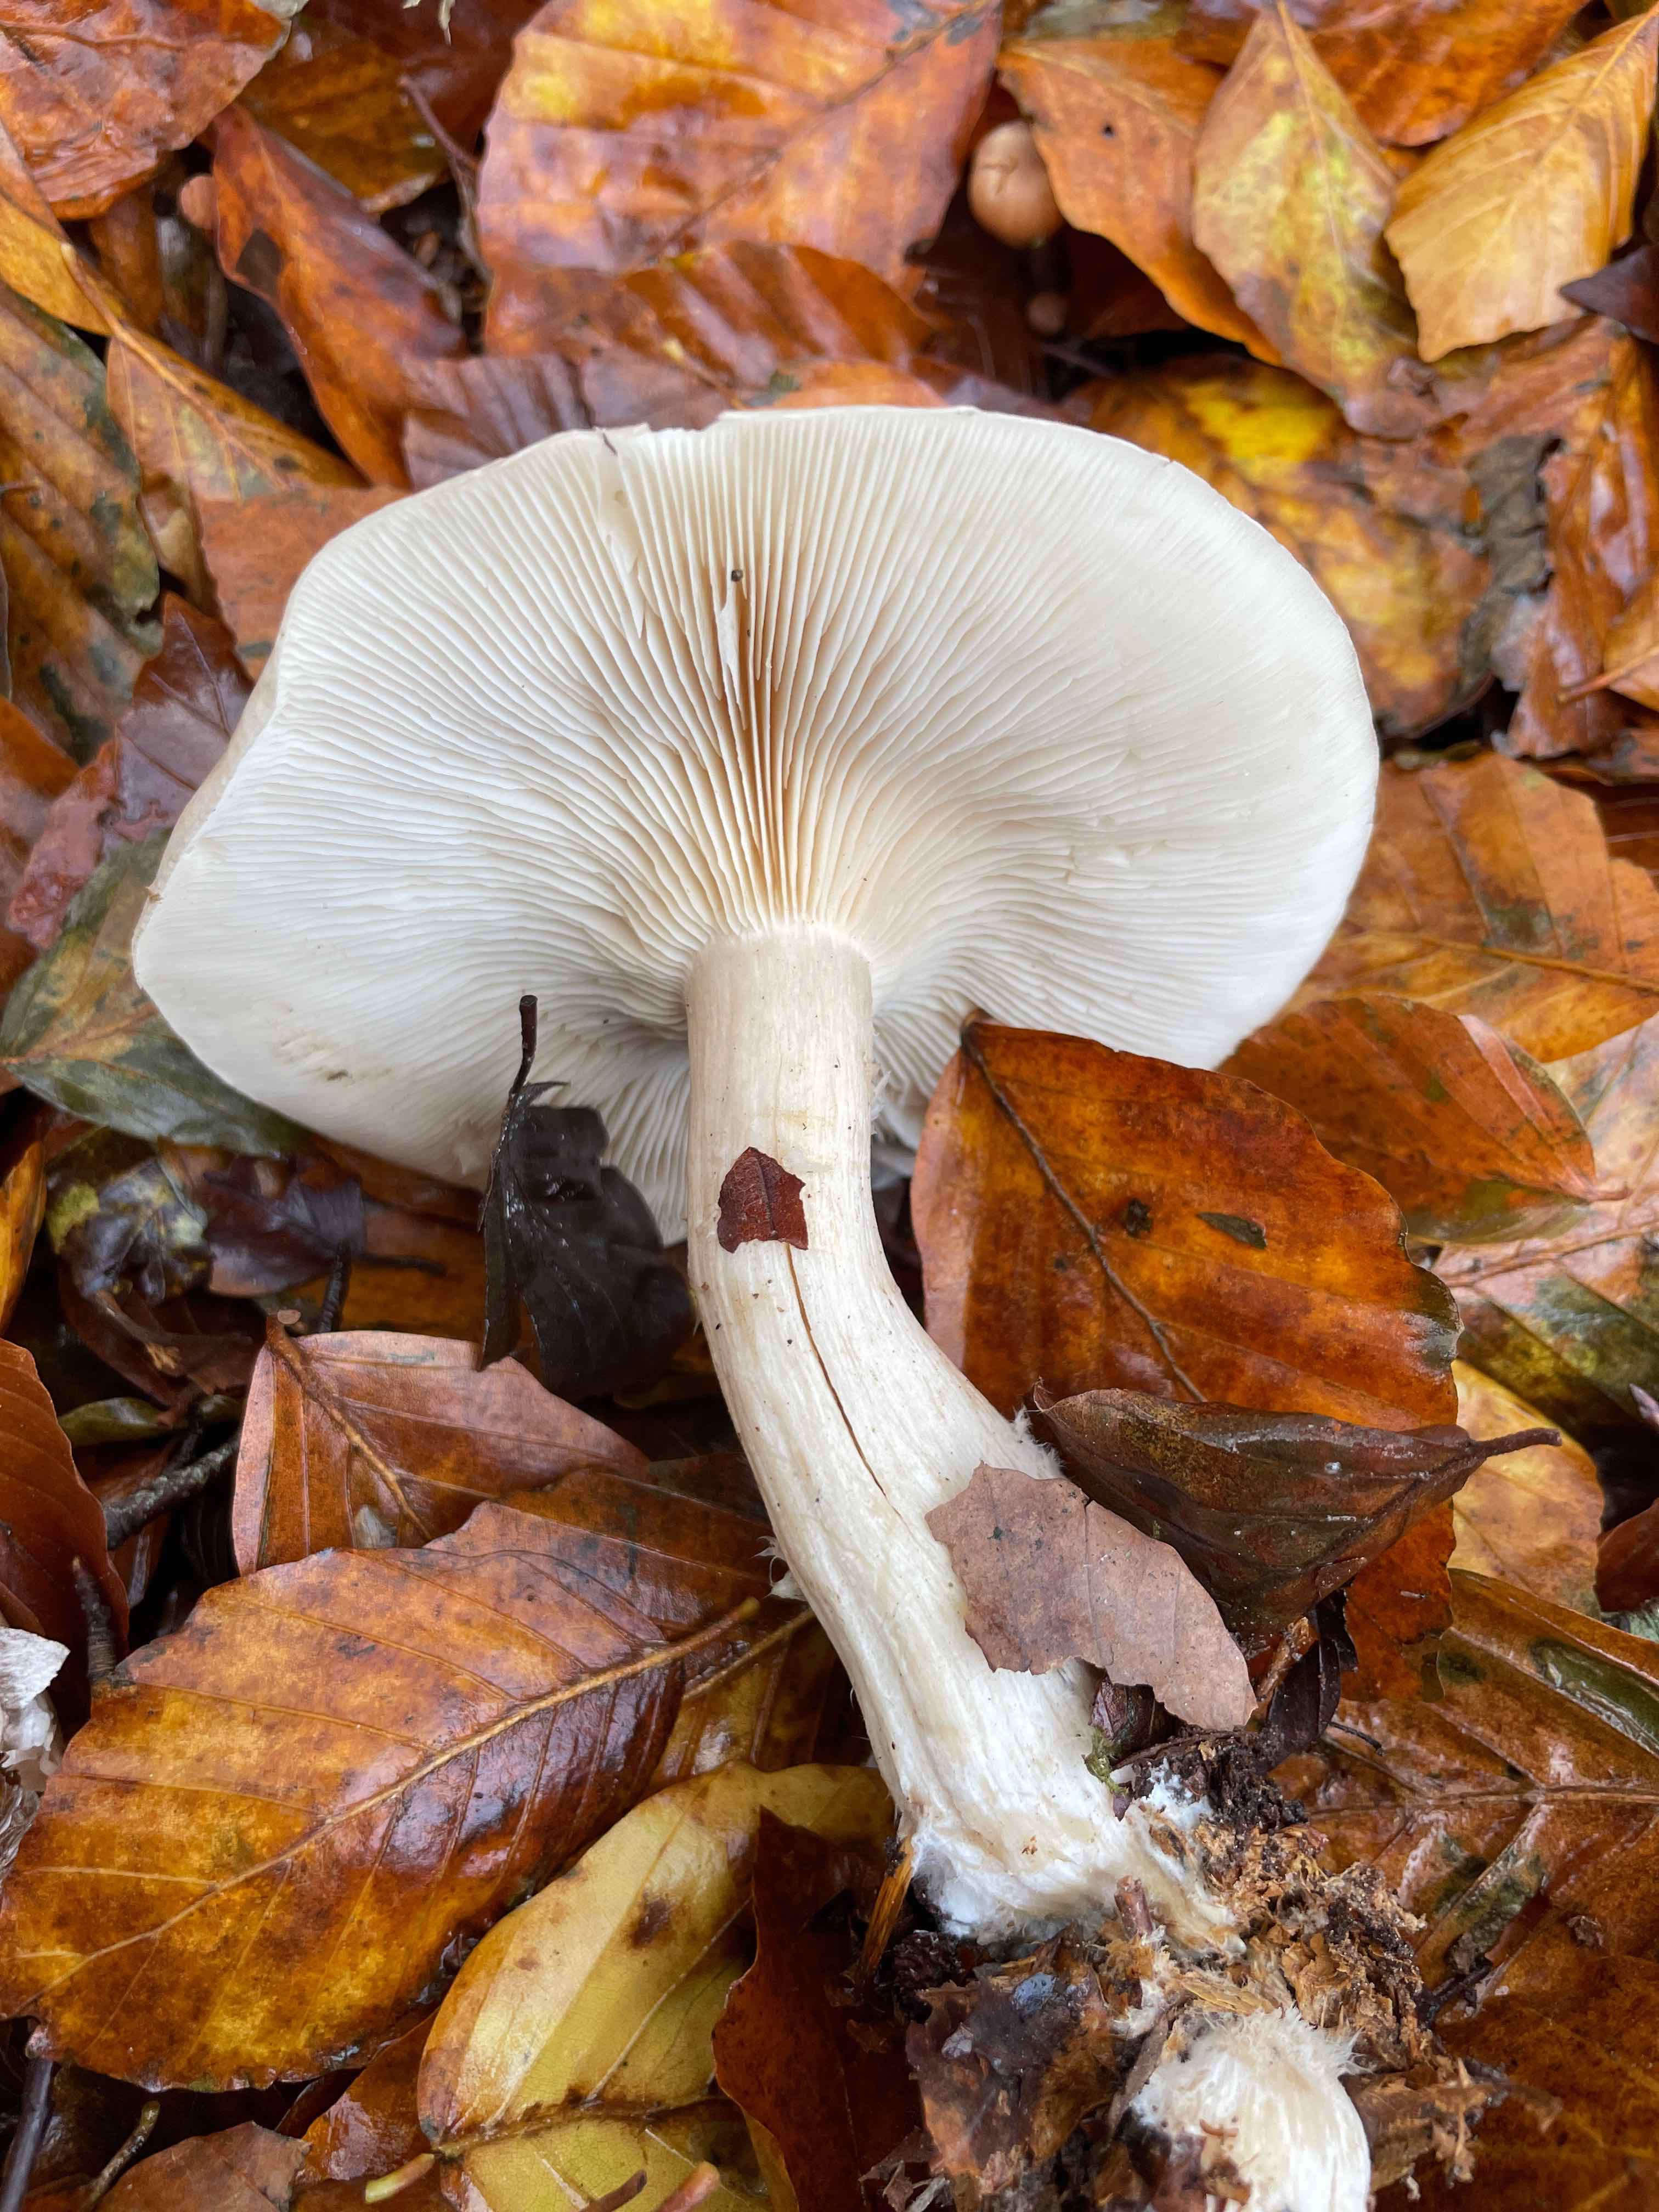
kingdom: Fungi
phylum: Basidiomycota
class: Agaricomycetes
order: Agaricales
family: Tricholomataceae
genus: Clitocybe
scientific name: Clitocybe nebularis
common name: tåge-tragthat
